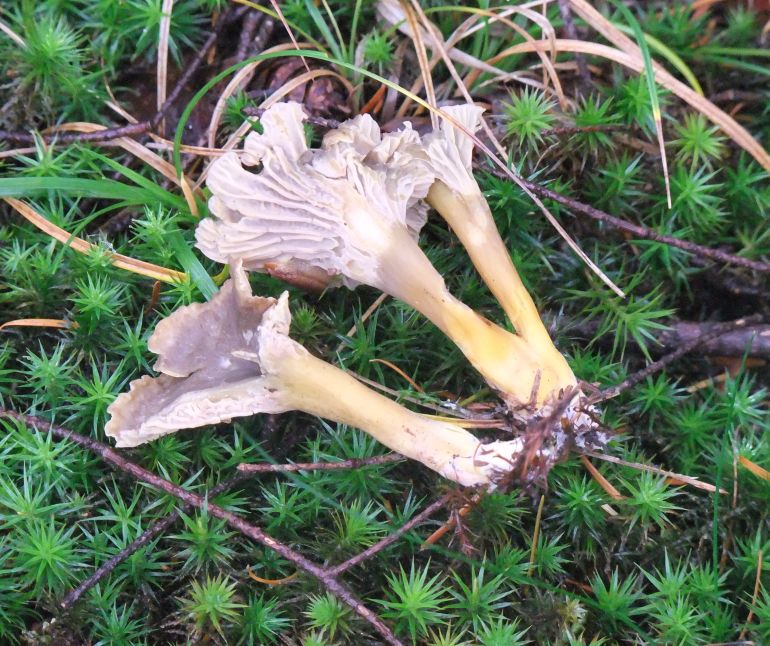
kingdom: Fungi
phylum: Basidiomycota
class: Agaricomycetes
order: Cantharellales
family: Hydnaceae
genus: Craterellus
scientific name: Craterellus tubaeformis
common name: tragt-kantarel
